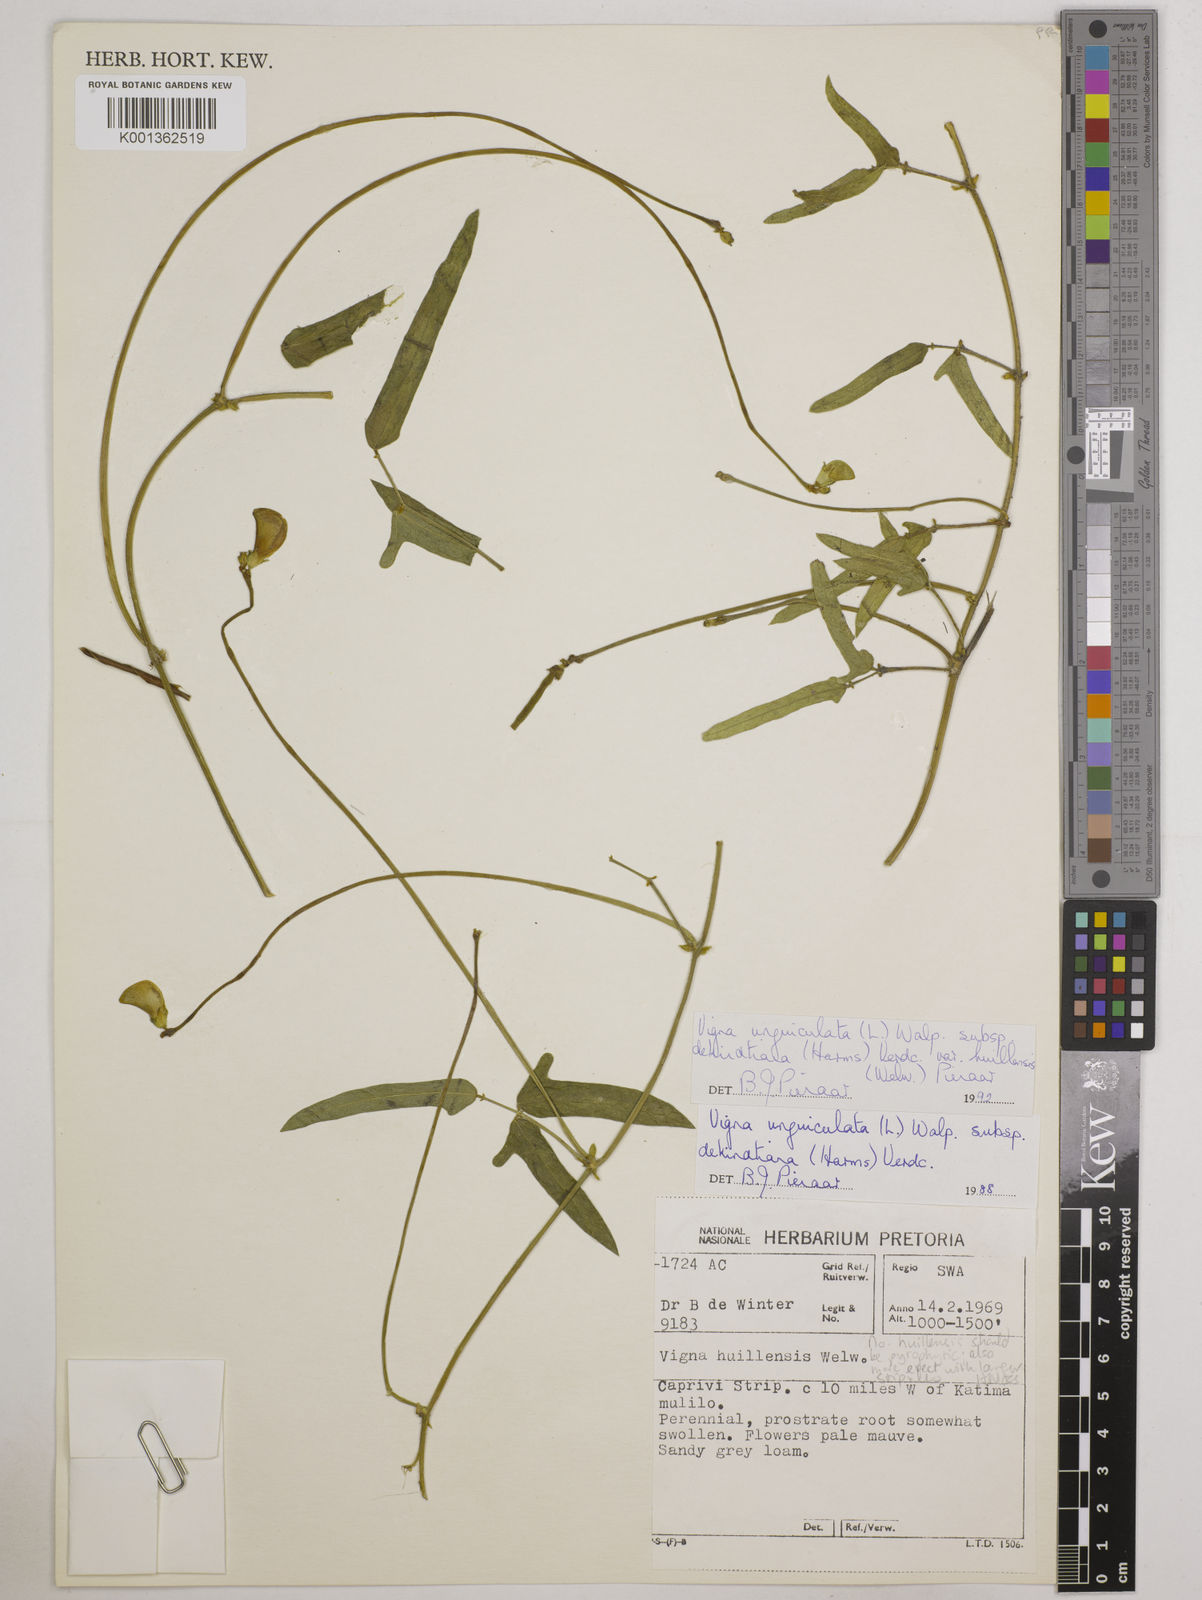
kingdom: Plantae
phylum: Tracheophyta
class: Magnoliopsida
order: Fabales
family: Fabaceae
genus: Vigna
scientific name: Vigna unguiculata
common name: Cowpea
